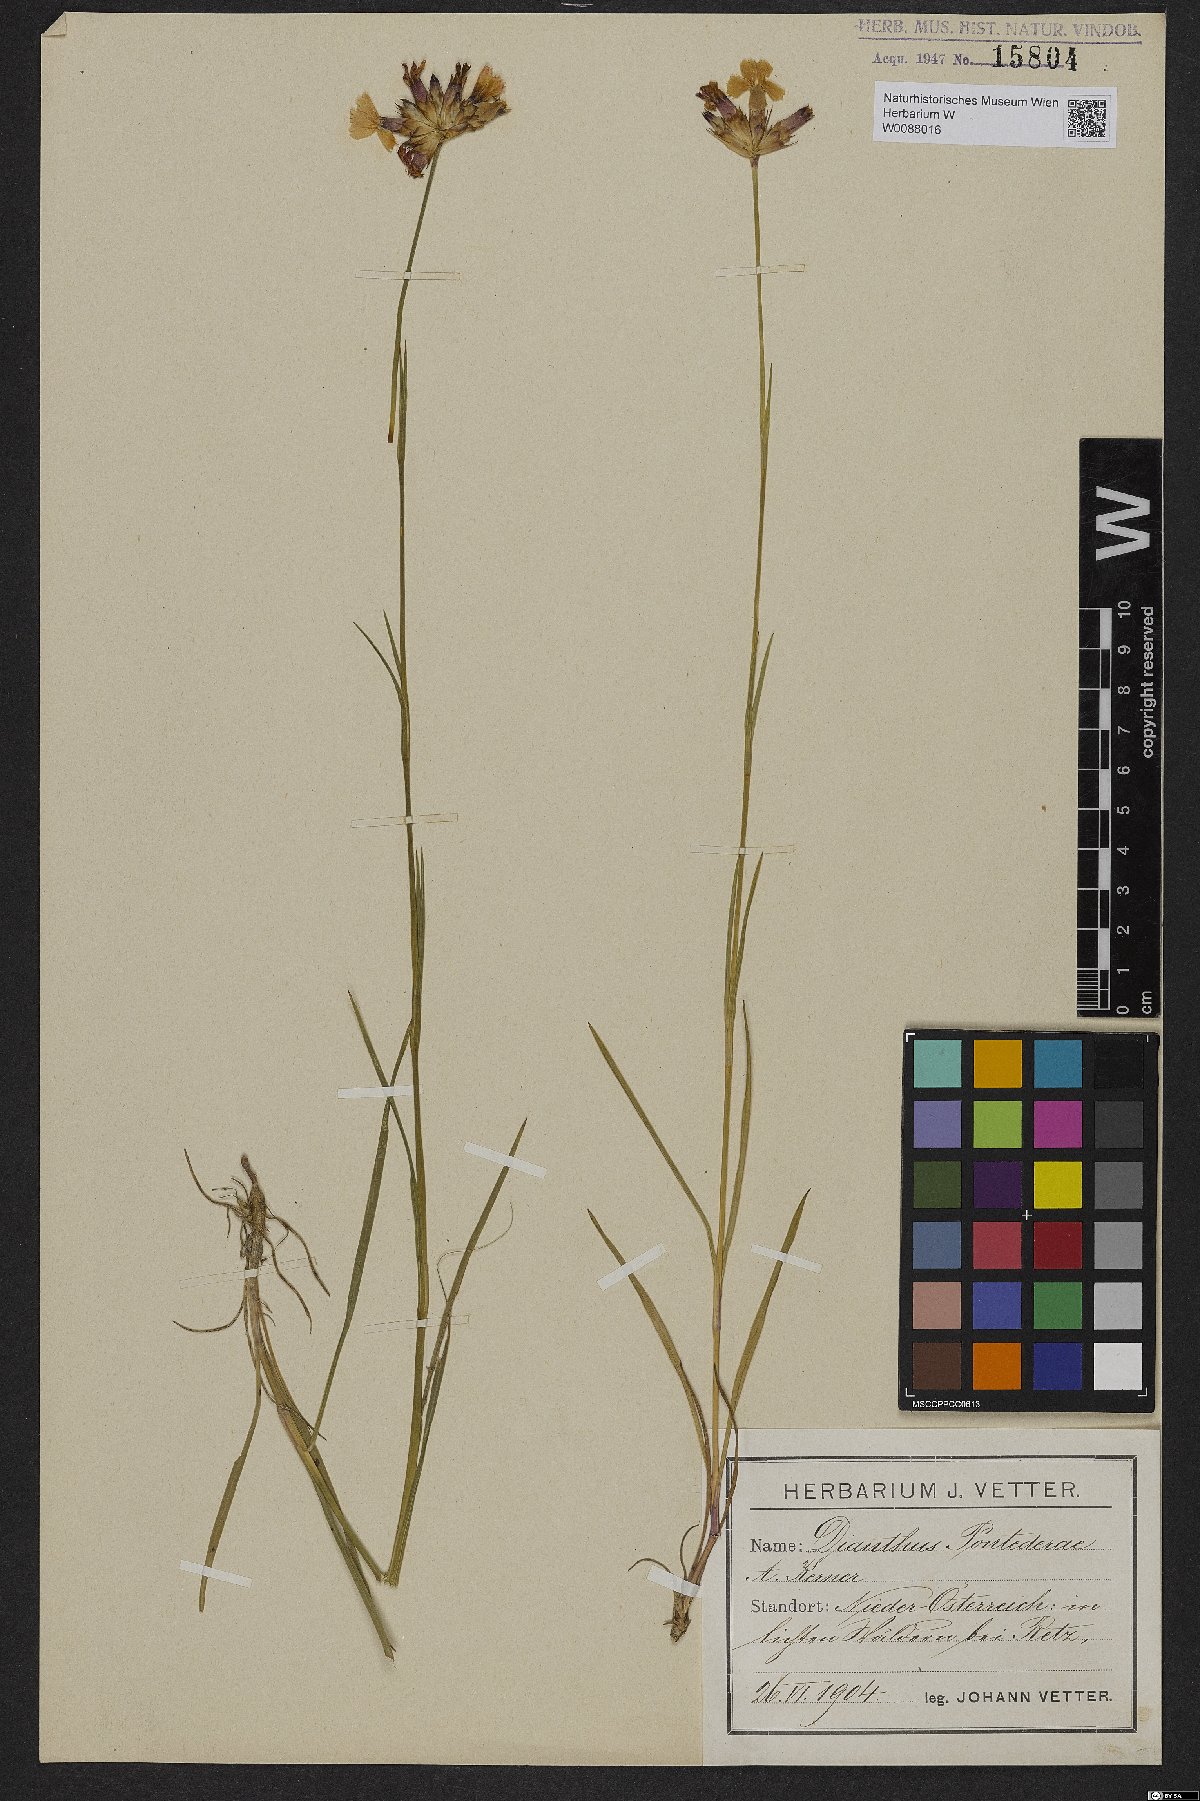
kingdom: Plantae
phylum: Tracheophyta
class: Magnoliopsida
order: Caryophyllales
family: Caryophyllaceae
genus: Dianthus
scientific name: Dianthus pontederae
